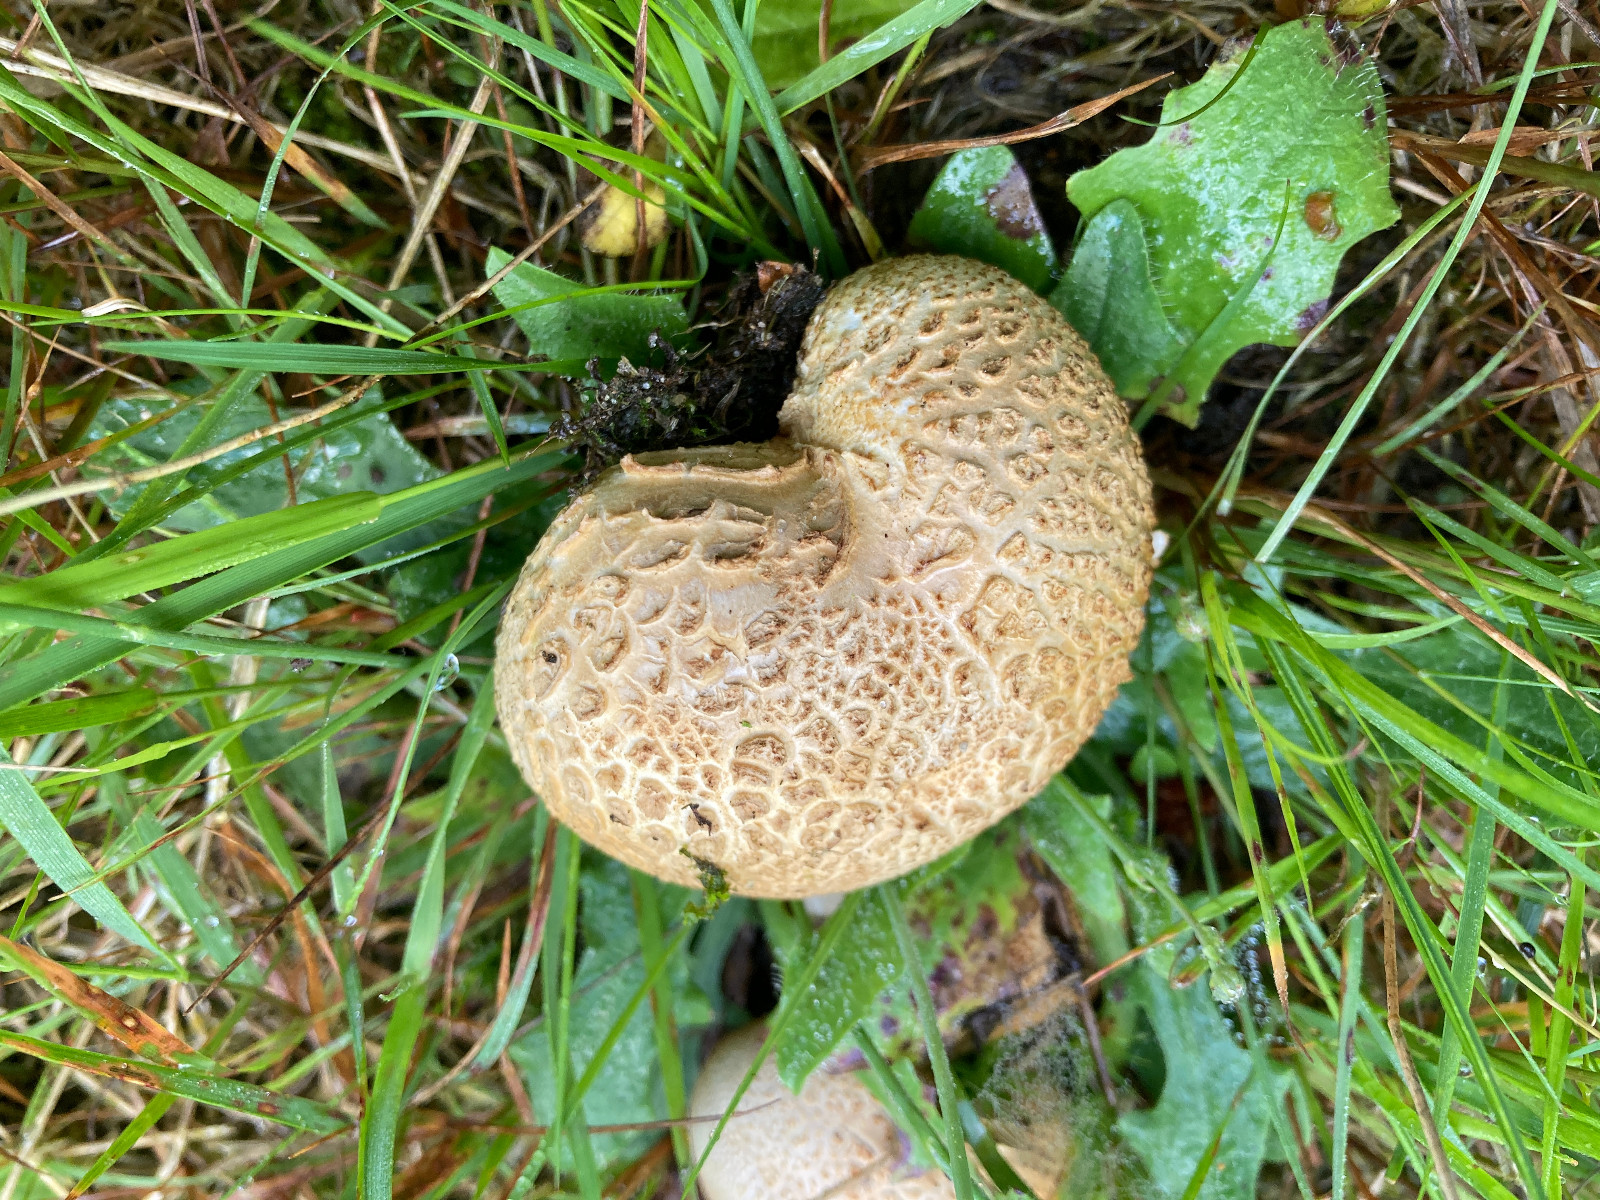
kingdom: Fungi
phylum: Basidiomycota
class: Agaricomycetes
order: Boletales
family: Sclerodermataceae
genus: Scleroderma
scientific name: Scleroderma citrinum
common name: almindelig bruskbold
